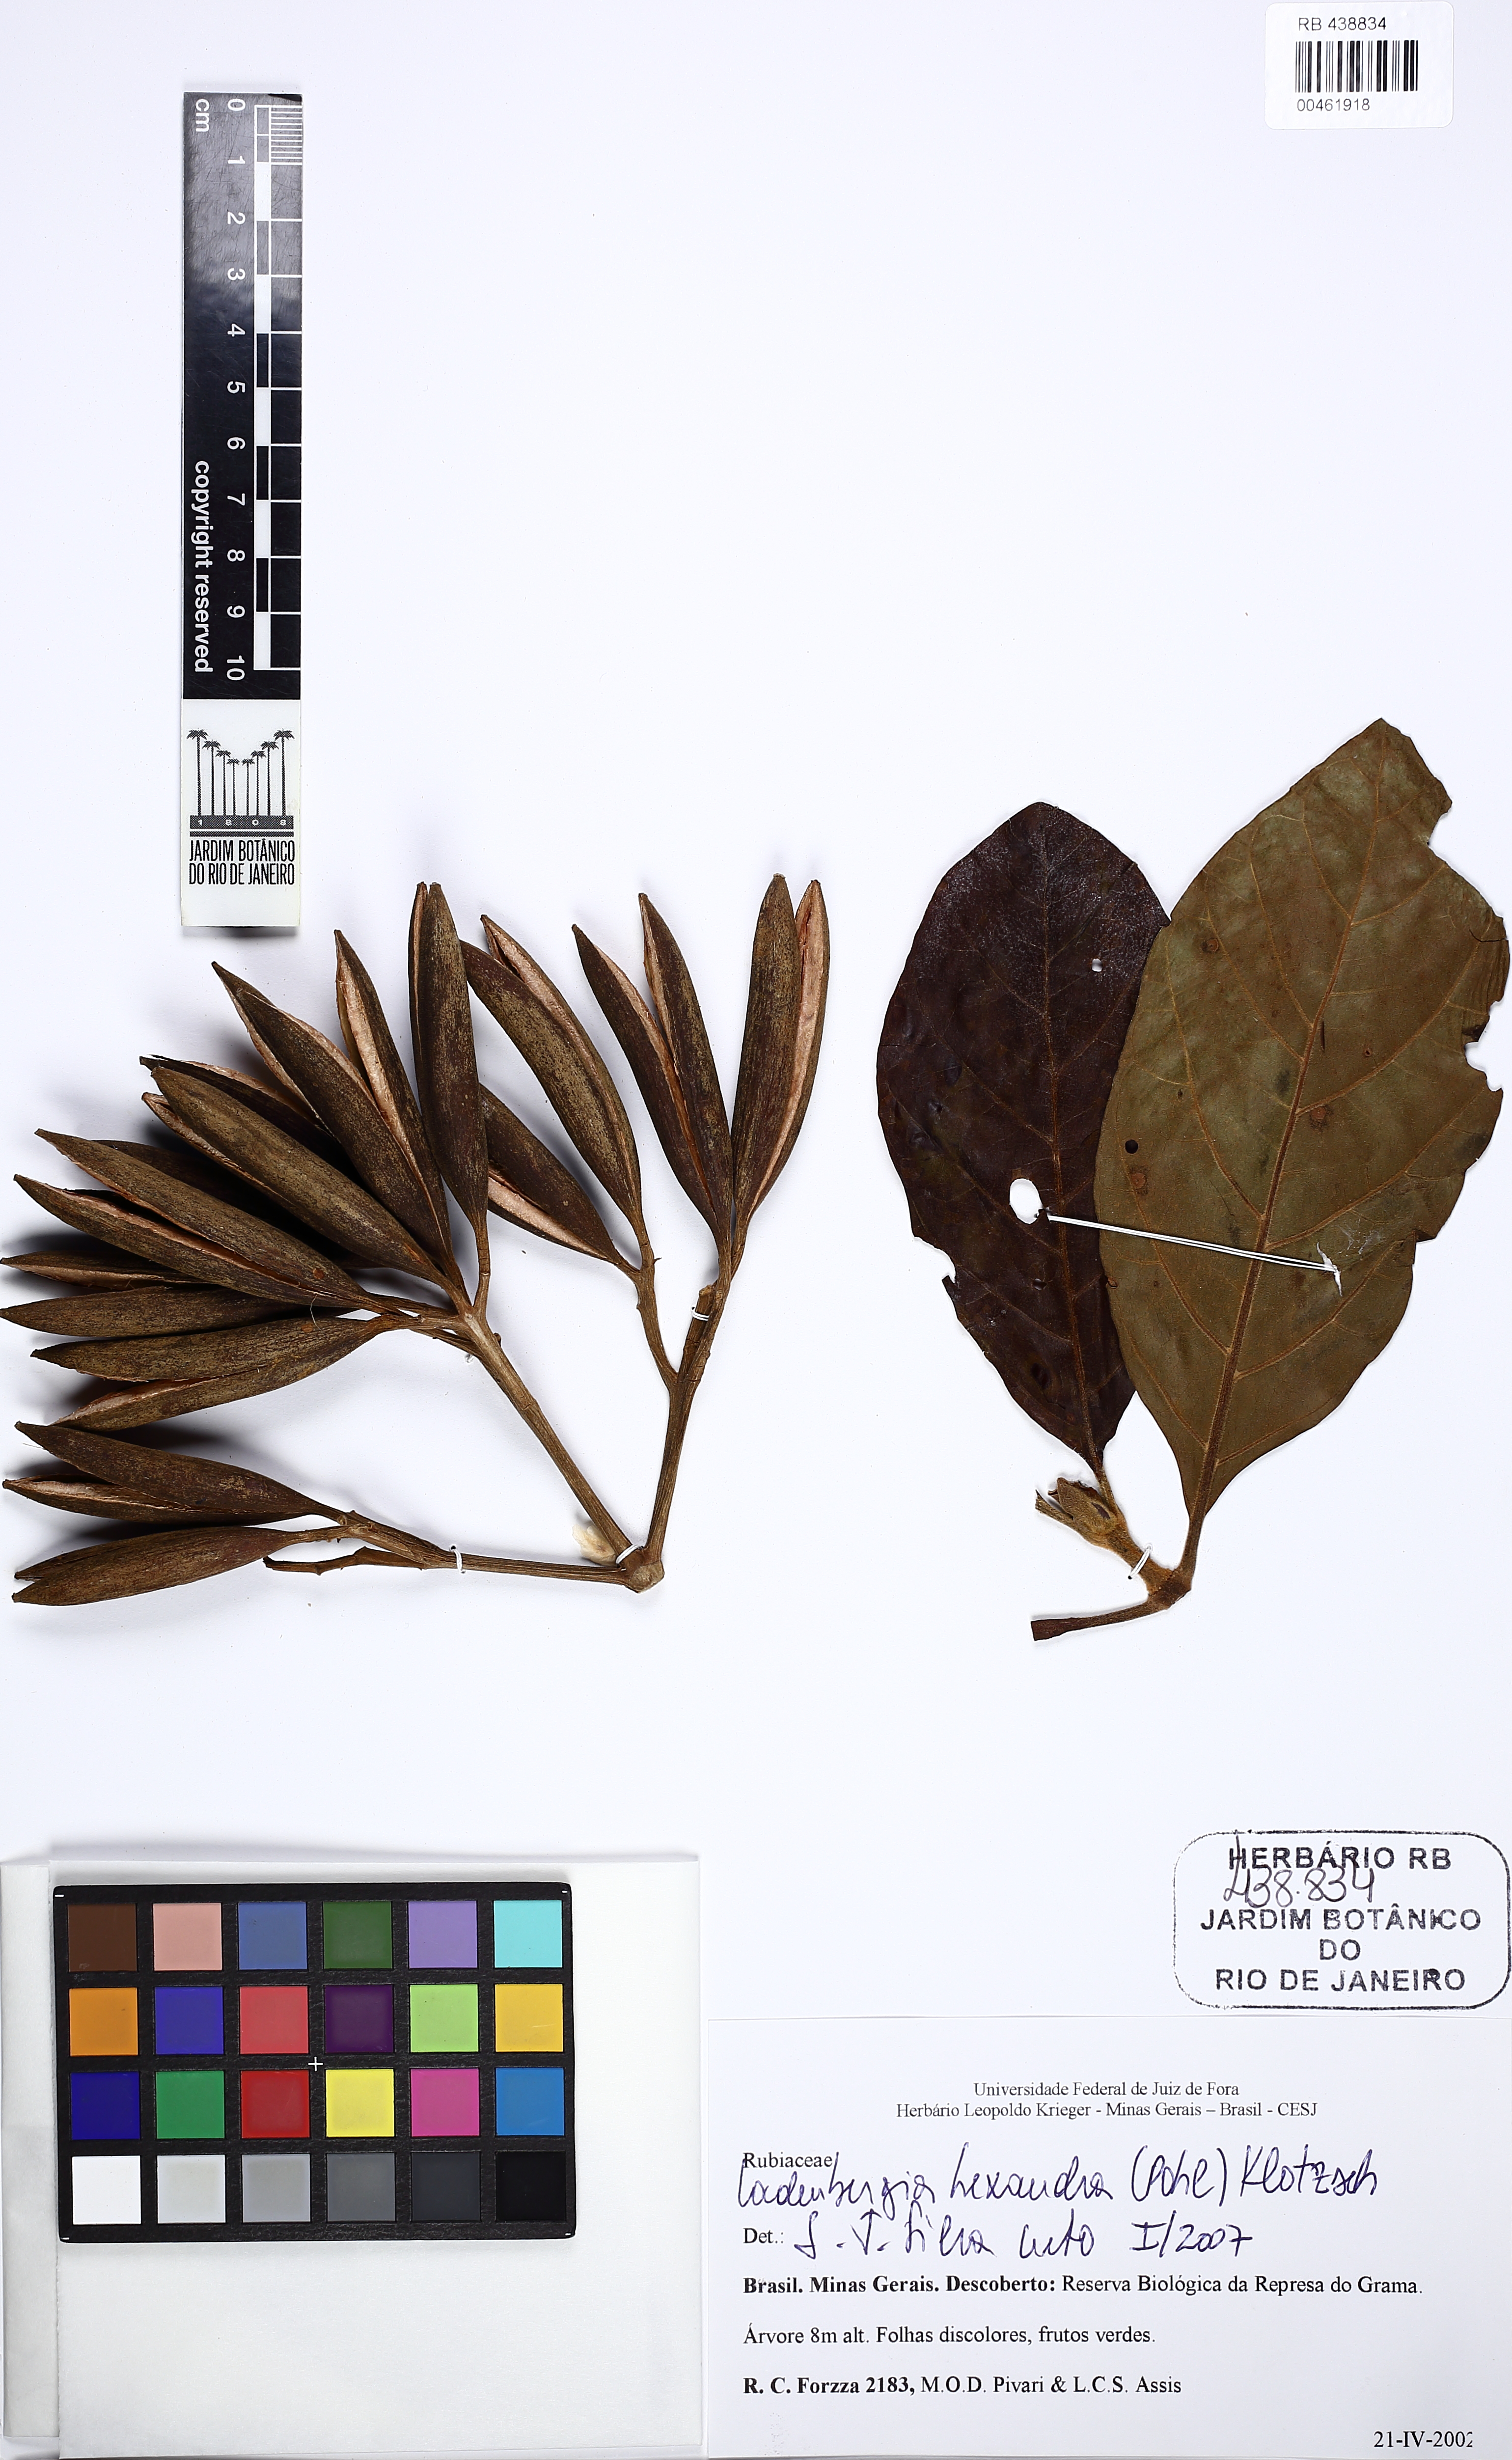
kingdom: Plantae
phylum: Tracheophyta
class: Magnoliopsida
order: Gentianales
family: Rubiaceae
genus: Ladenbergia
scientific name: Ladenbergia hexandra
